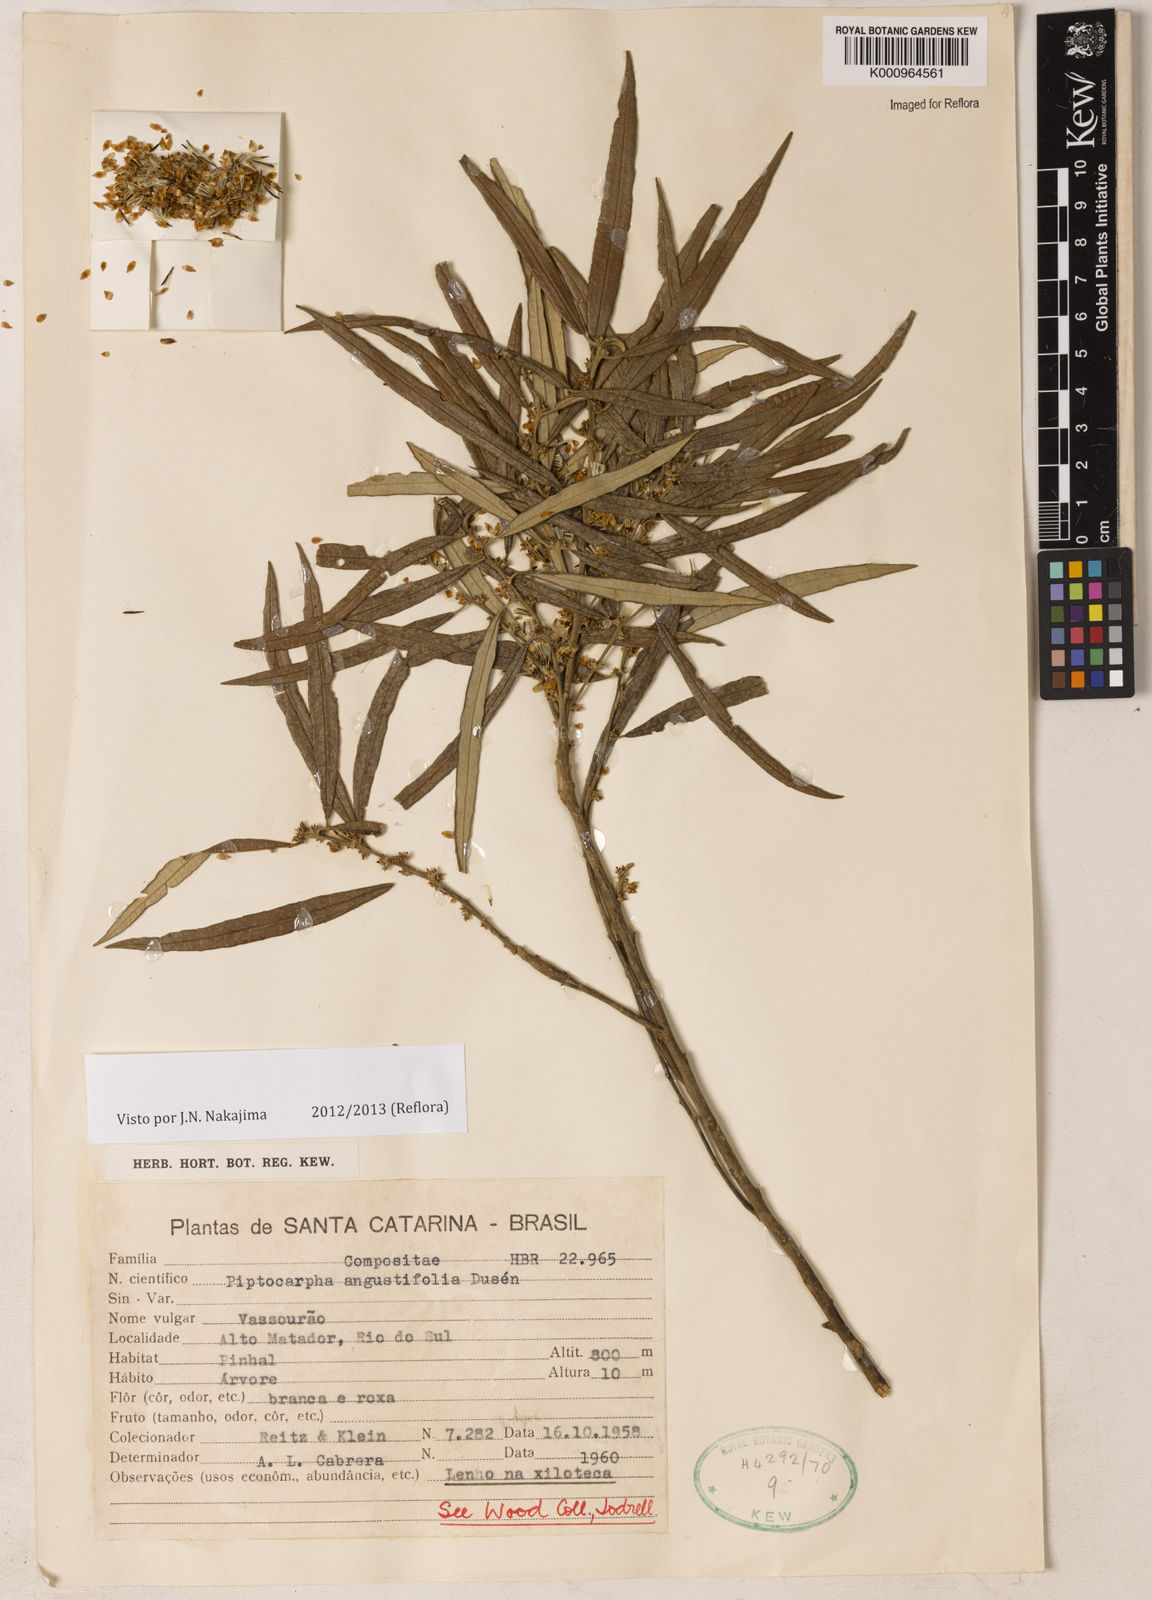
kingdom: Plantae
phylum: Tracheophyta
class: Magnoliopsida
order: Asterales
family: Asteraceae
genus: Piptocarpha
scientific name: Piptocarpha
